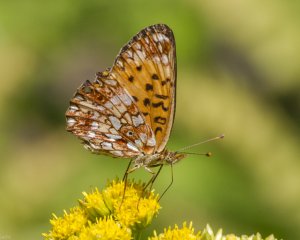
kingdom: Animalia
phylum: Arthropoda
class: Insecta
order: Lepidoptera
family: Nymphalidae
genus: Boloria
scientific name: Boloria selene
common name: Silver-bordered Fritillary
